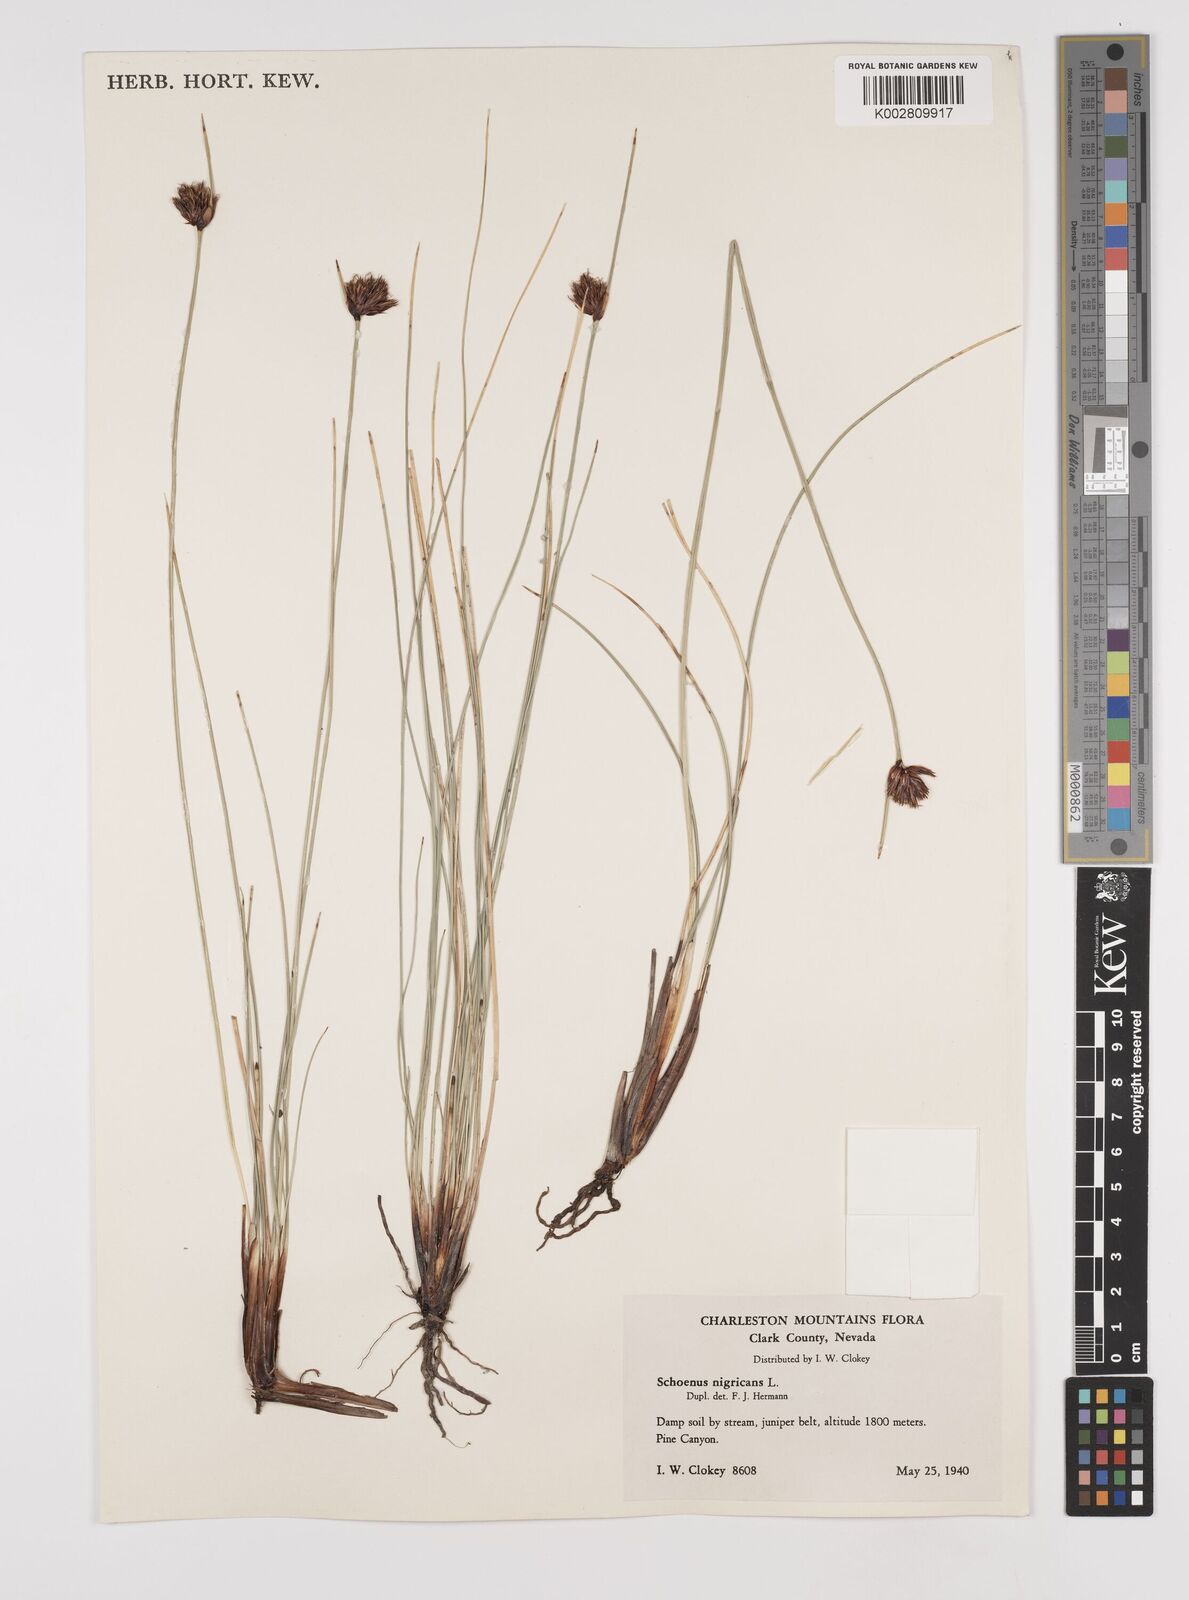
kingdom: Plantae
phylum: Tracheophyta
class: Liliopsida
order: Poales
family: Cyperaceae
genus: Schoenus
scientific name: Schoenus nigricans
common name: Black bog-rush
